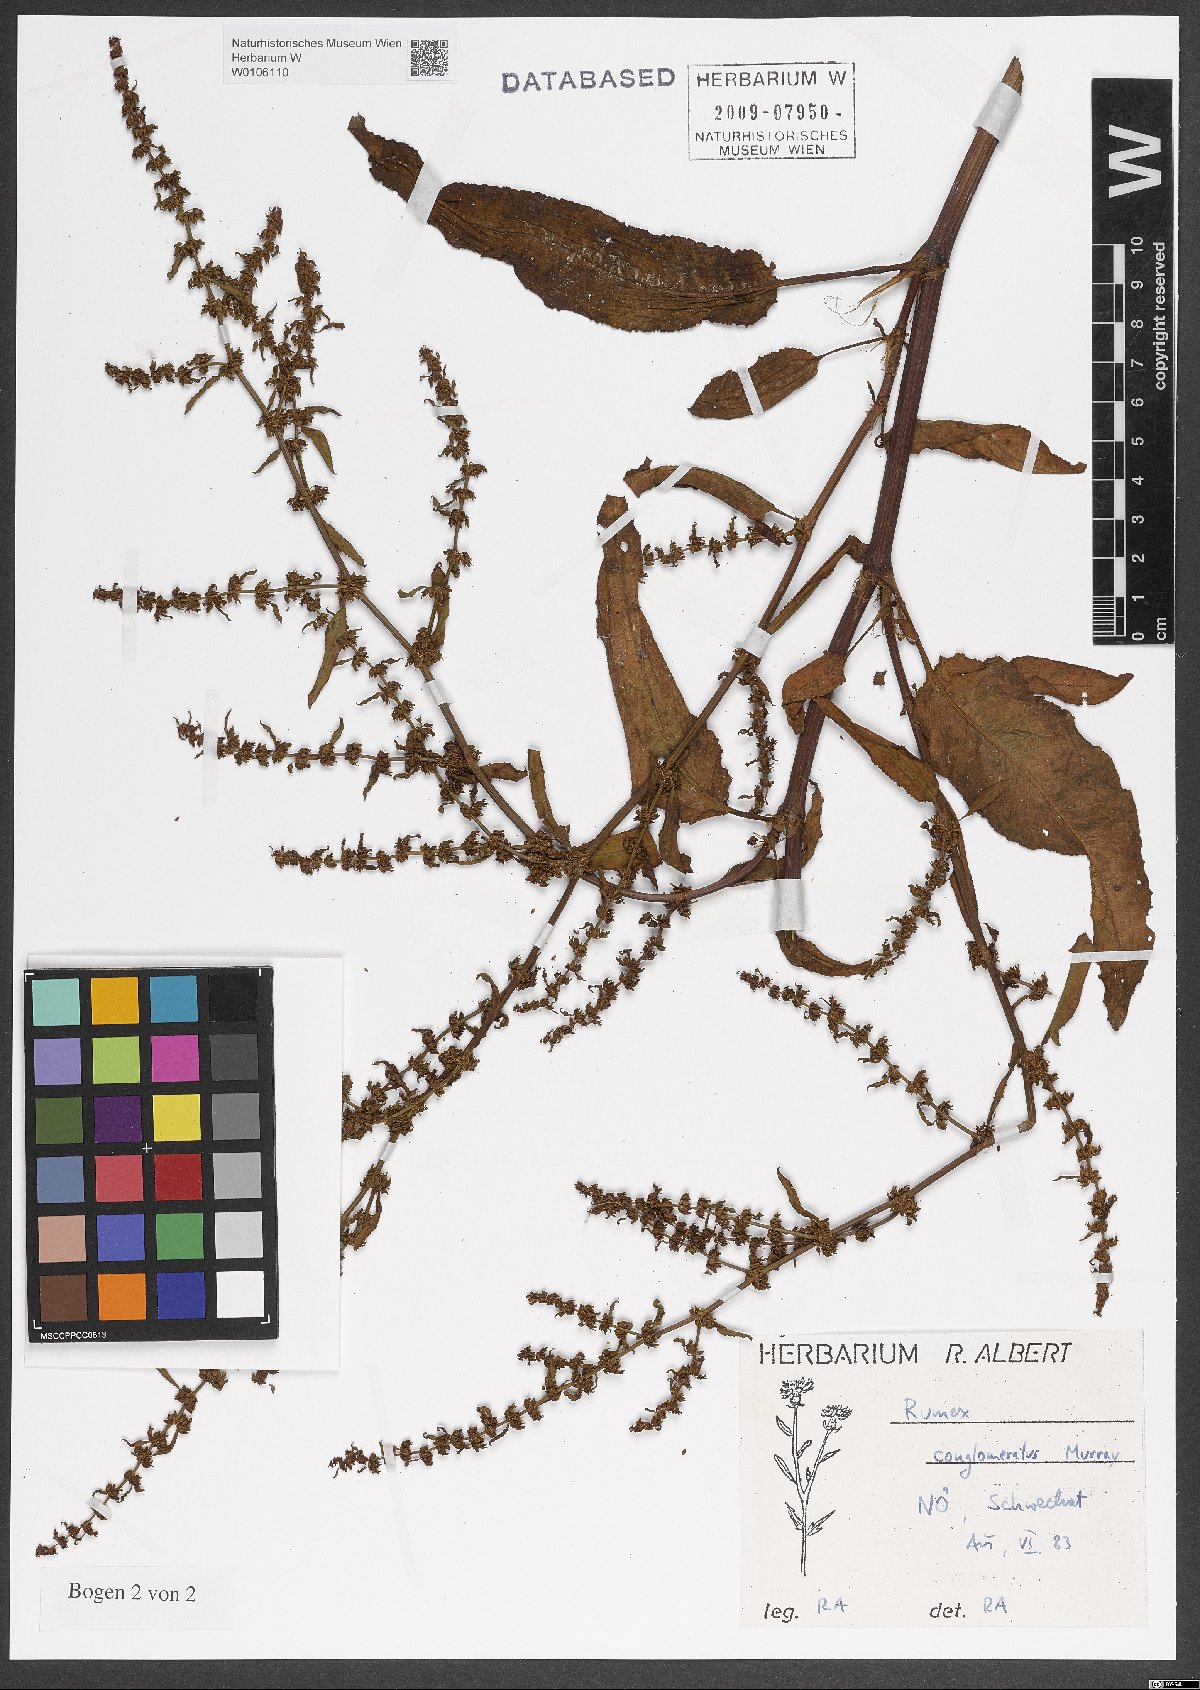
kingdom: Plantae
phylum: Tracheophyta
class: Magnoliopsida
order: Caryophyllales
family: Polygonaceae
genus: Rumex
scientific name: Rumex conglomeratus
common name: Clustered dock
